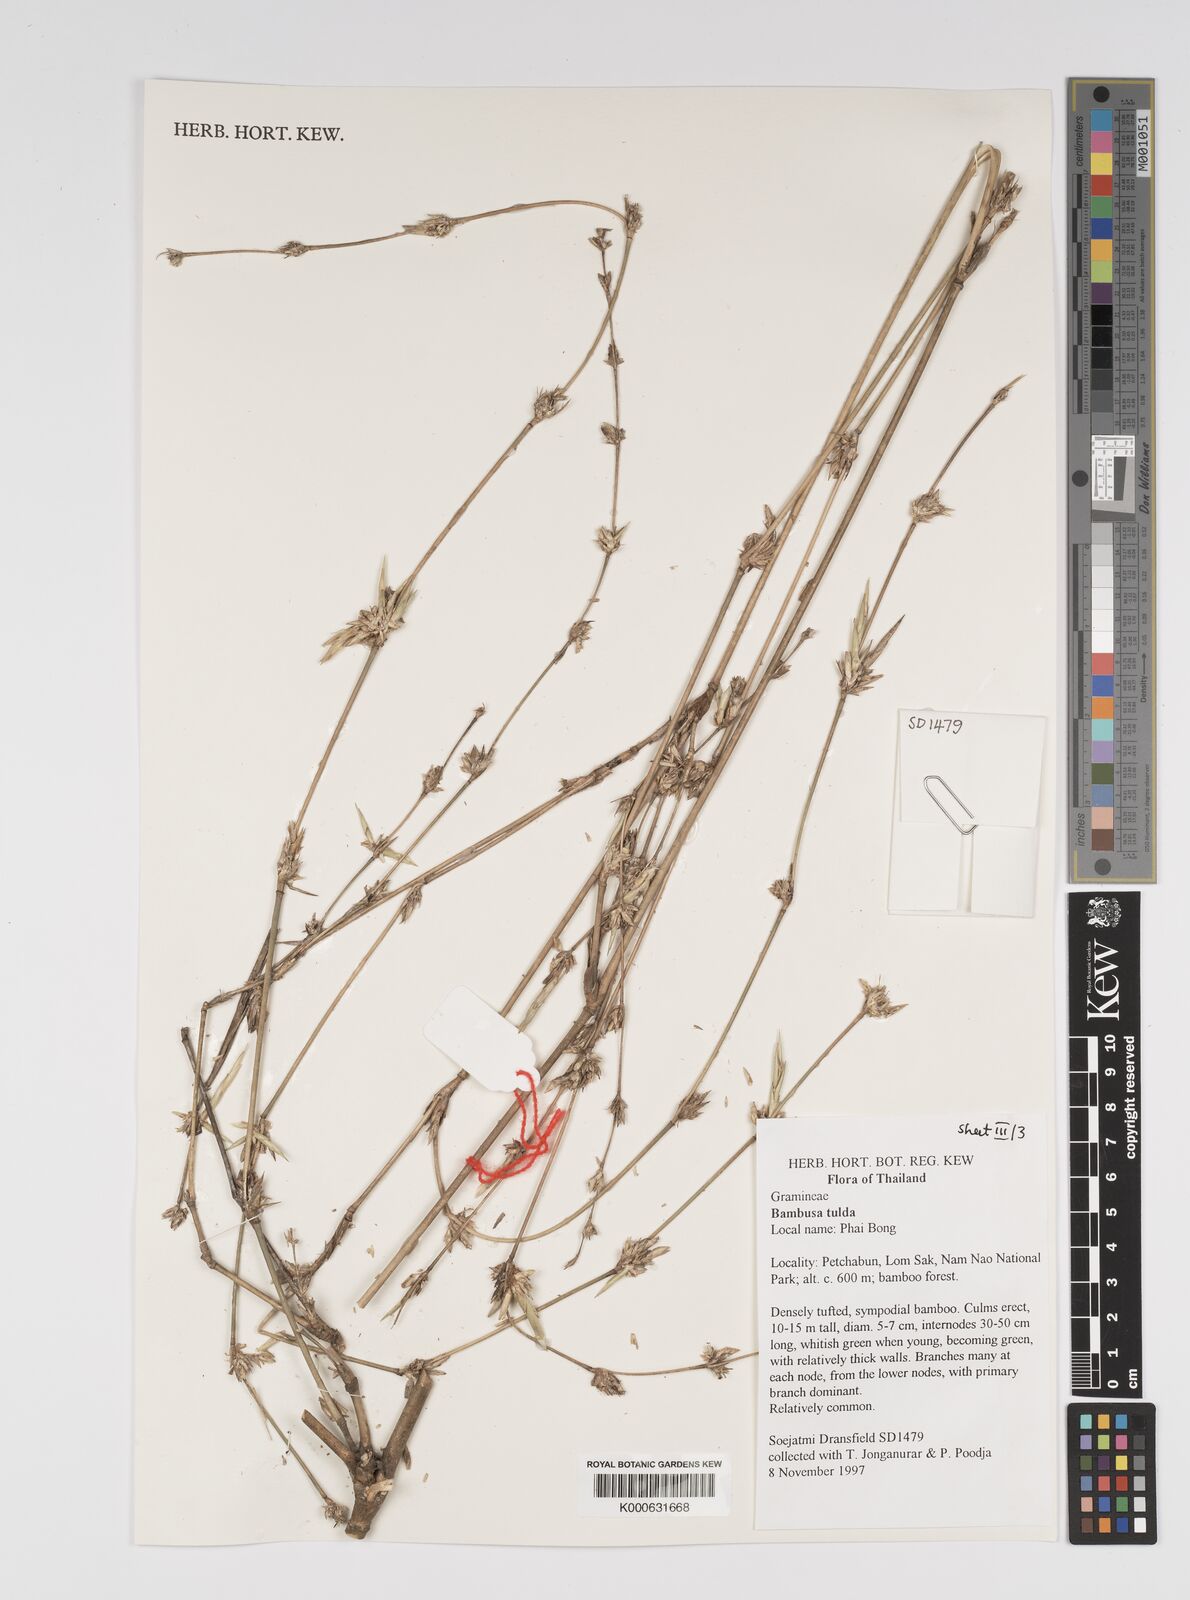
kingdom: Plantae
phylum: Tracheophyta
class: Liliopsida
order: Poales
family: Poaceae
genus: Bambusa
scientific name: Bambusa
